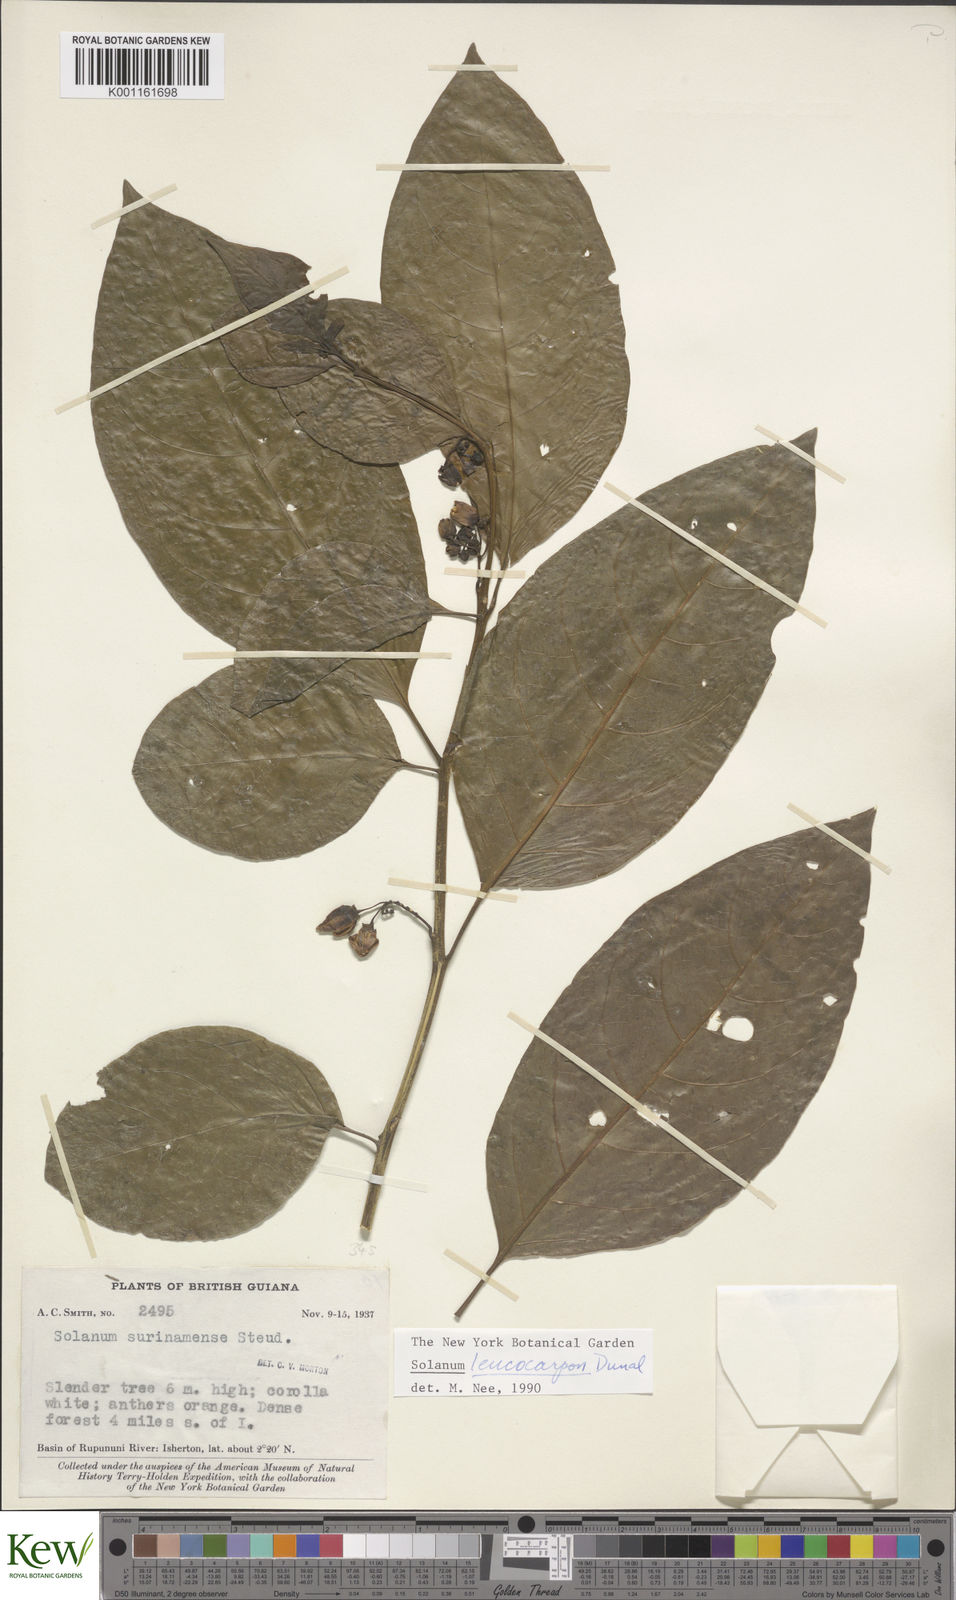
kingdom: Plantae
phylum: Tracheophyta
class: Magnoliopsida
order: Solanales
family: Solanaceae
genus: Solanum
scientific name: Solanum leucocarpon
